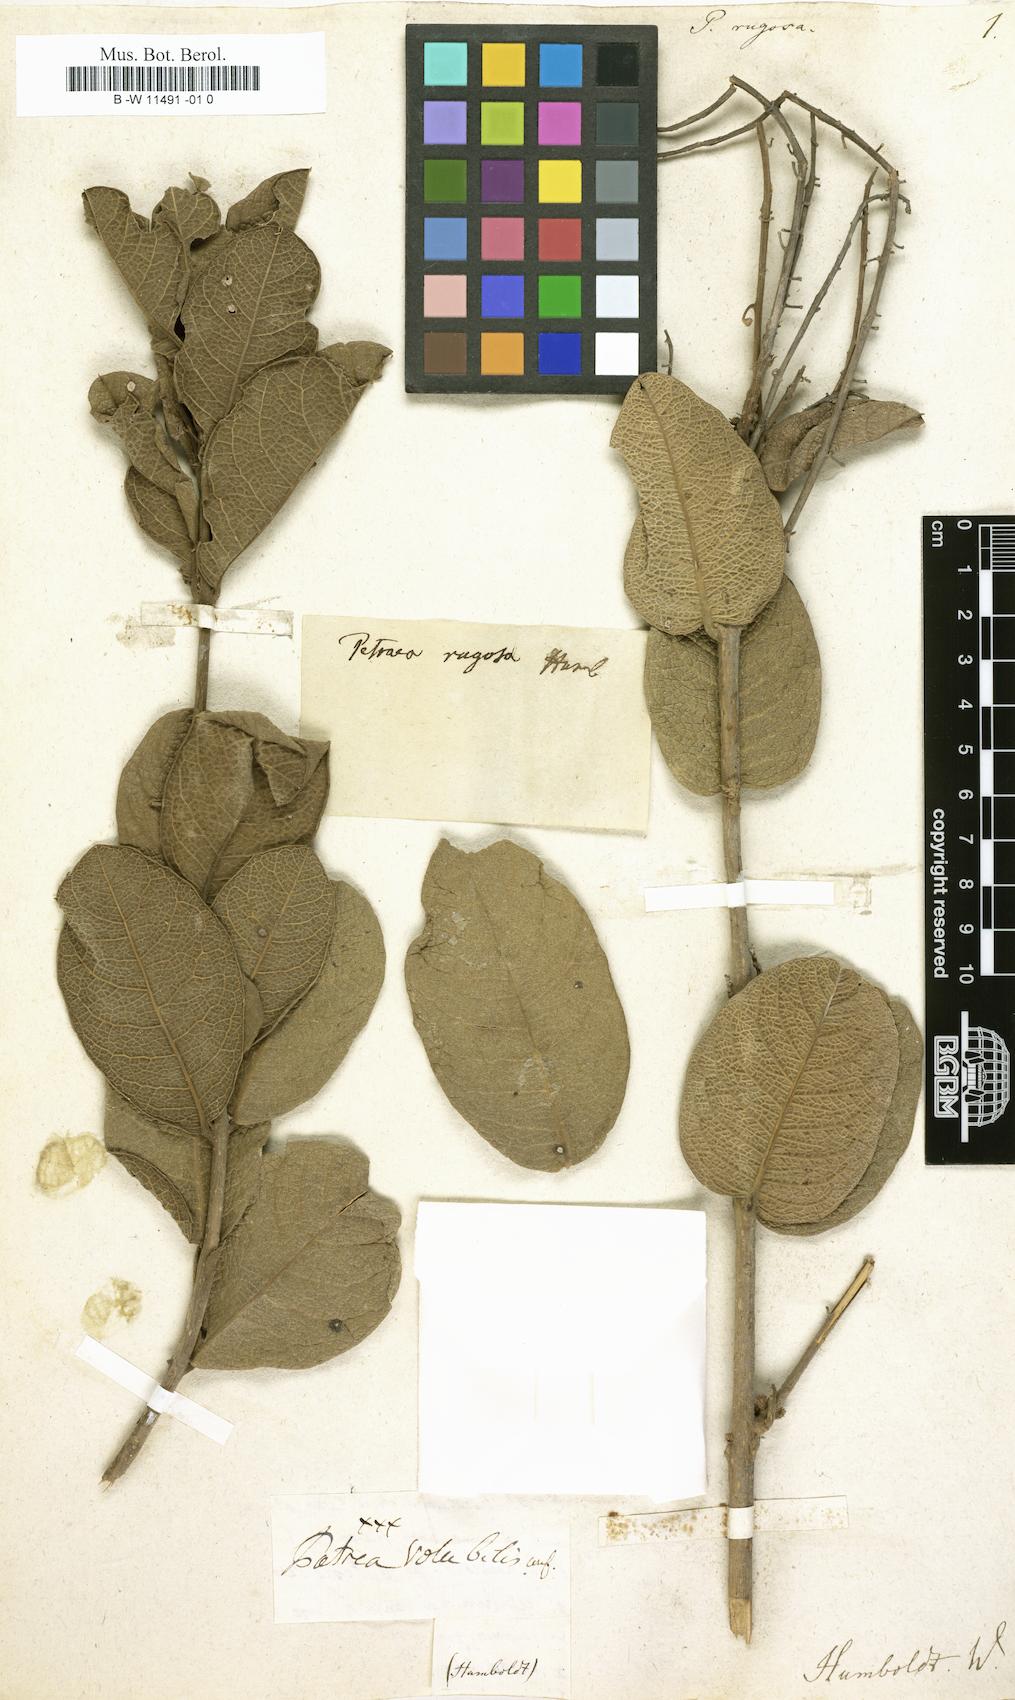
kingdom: Plantae
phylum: Tracheophyta
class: Magnoliopsida
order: Lamiales
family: Verbenaceae
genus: Petrea
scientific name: Petrea rugosa
